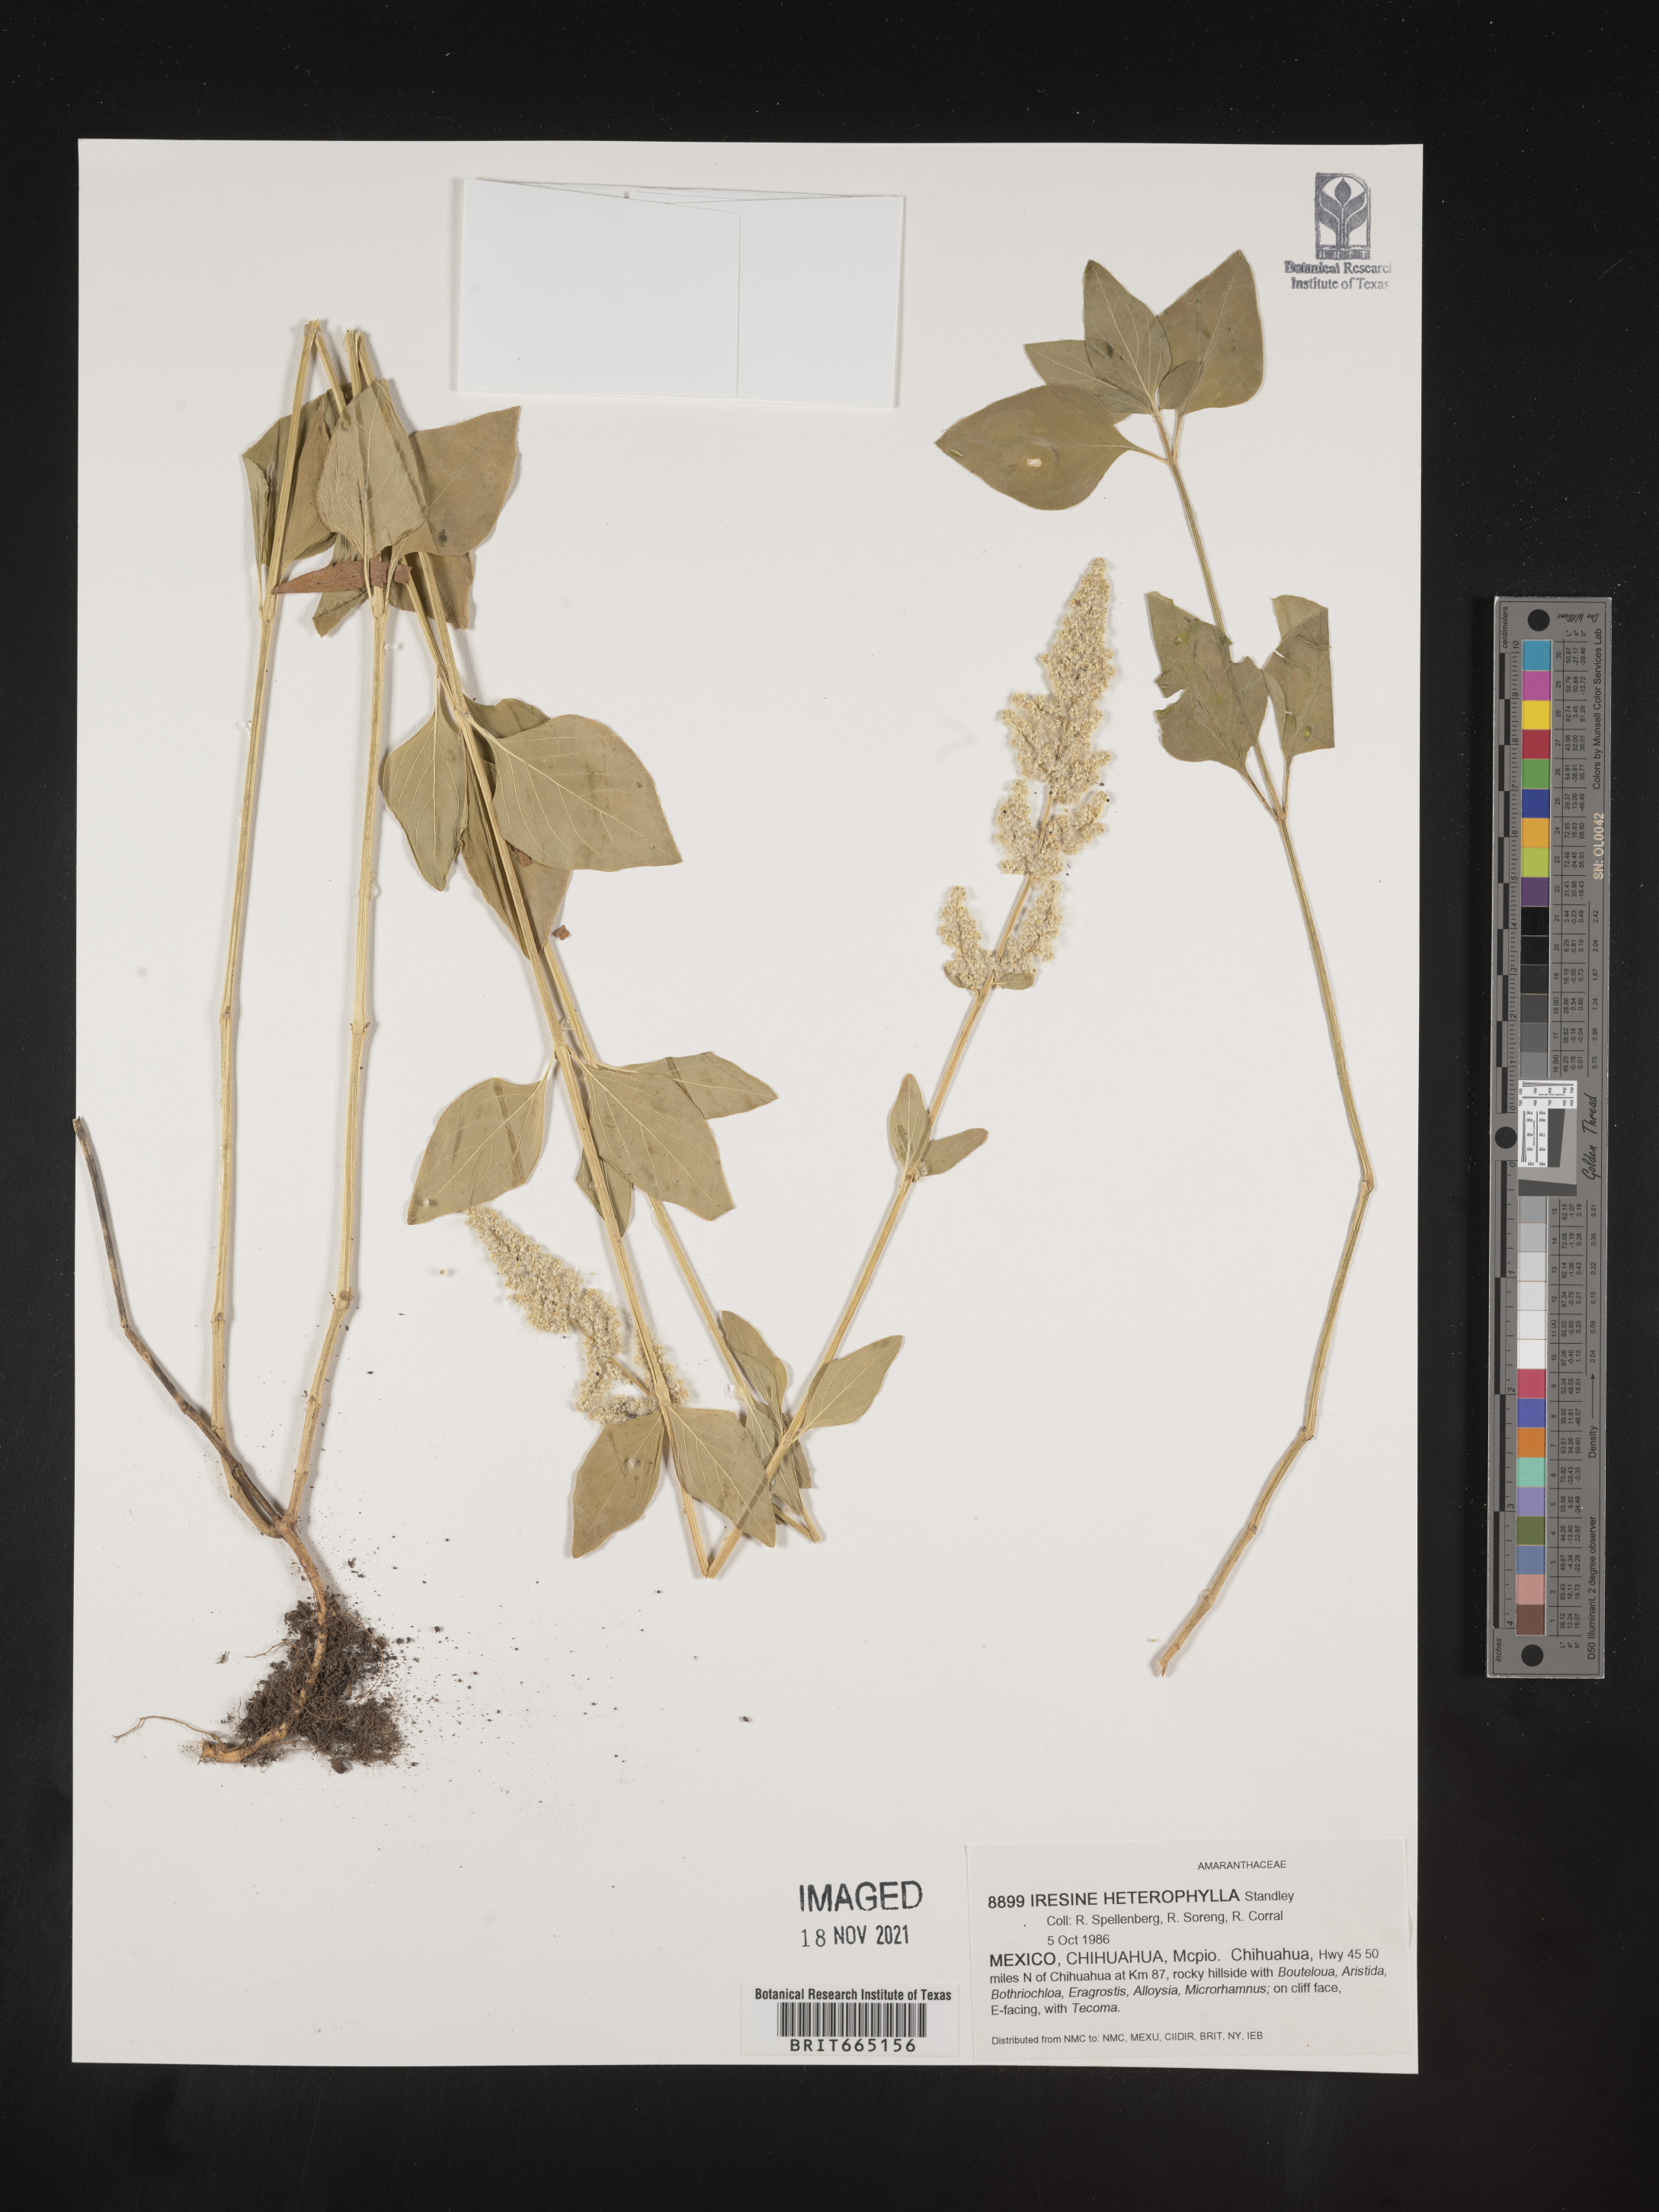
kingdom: Plantae
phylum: Tracheophyta
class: Magnoliopsida
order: Caryophyllales
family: Amaranthaceae
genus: Iresine
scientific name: Iresine
